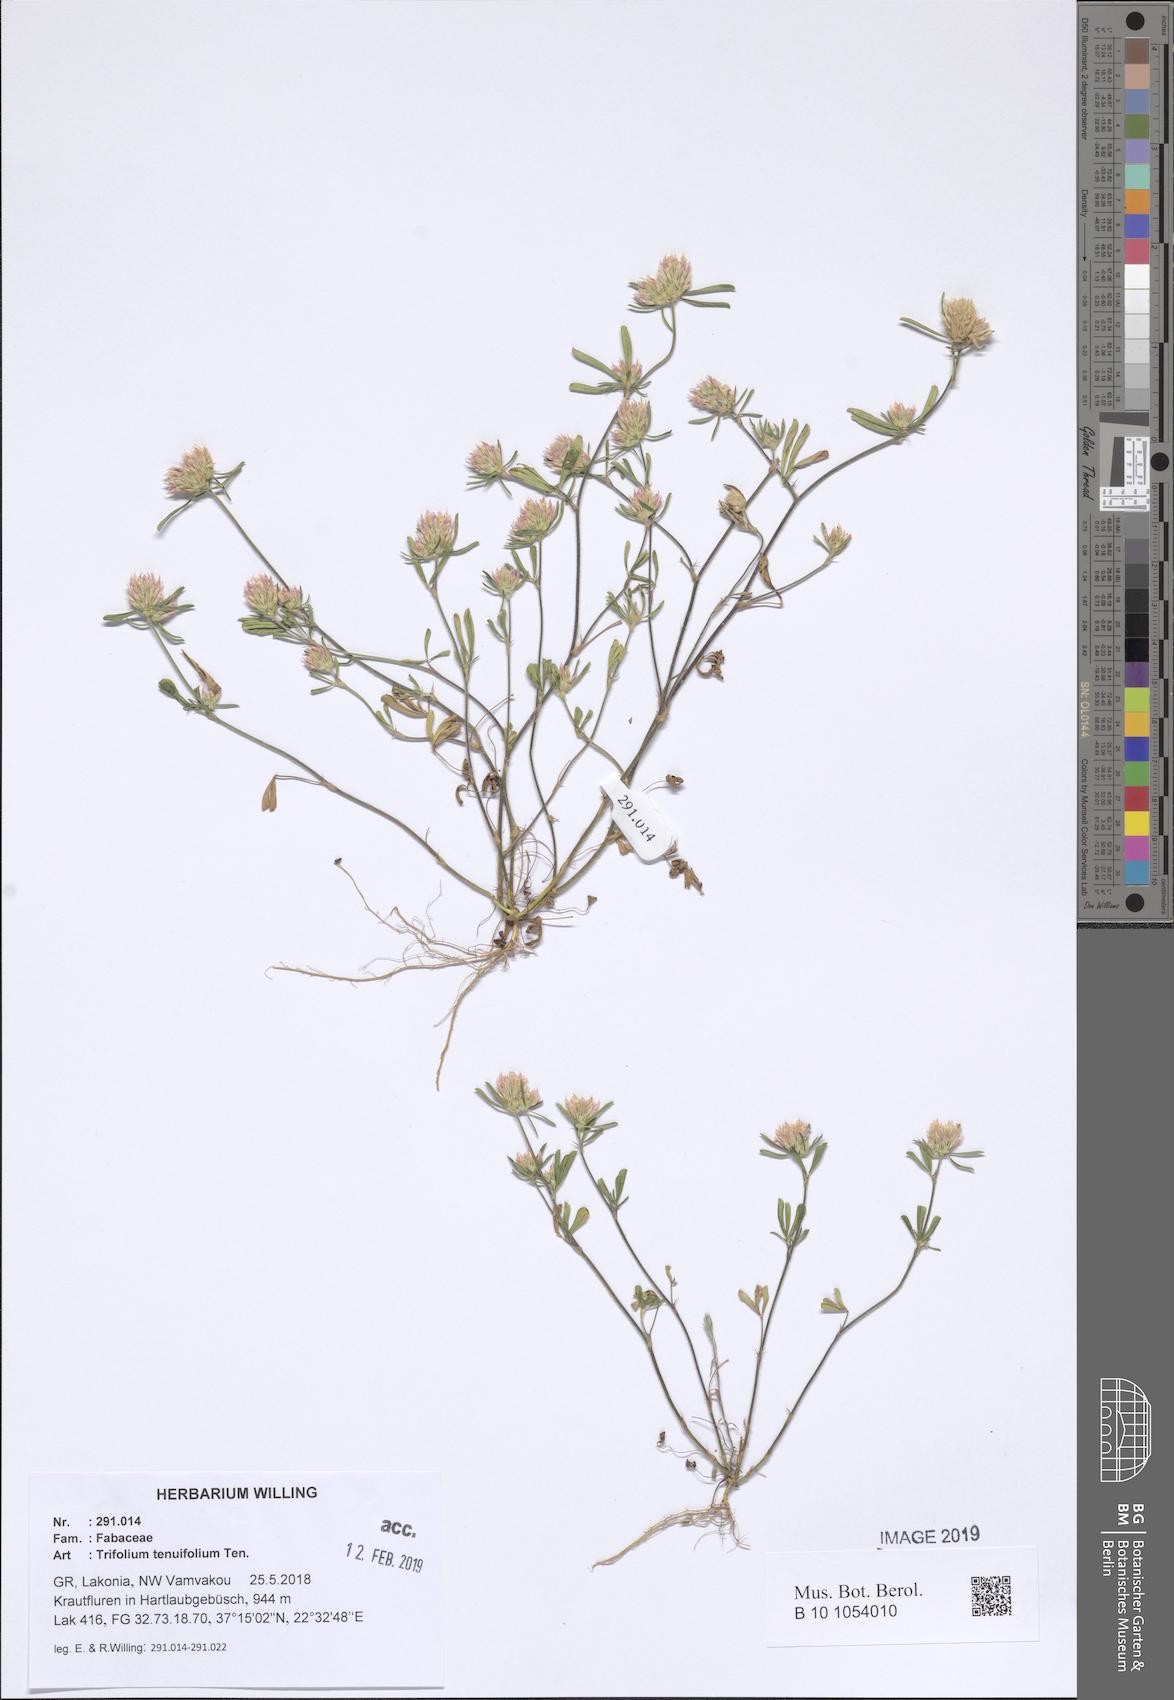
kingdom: Plantae
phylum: Tracheophyta
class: Magnoliopsida
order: Fabales
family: Fabaceae
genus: Trifolium
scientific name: Trifolium tenuifolium
